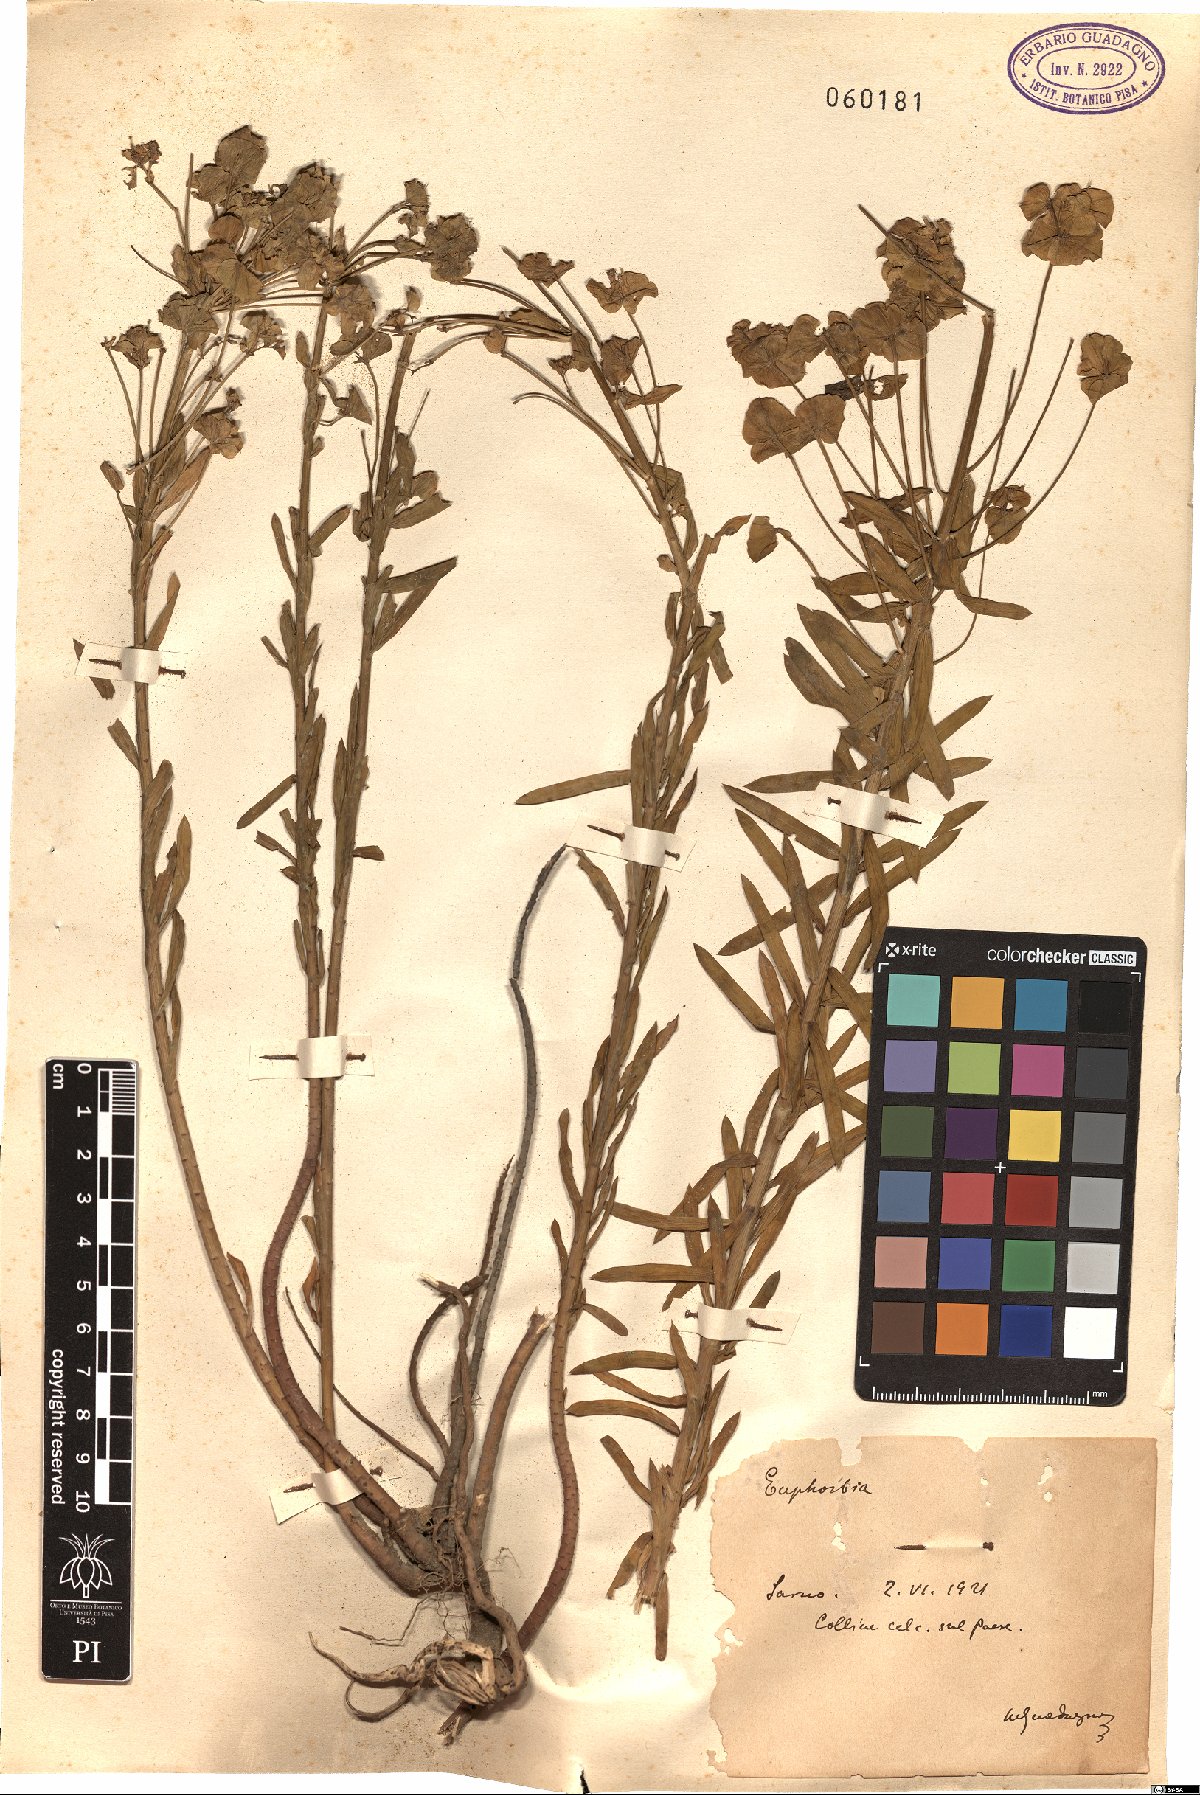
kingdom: Plantae
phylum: Tracheophyta
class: Magnoliopsida
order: Malpighiales
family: Euphorbiaceae
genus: Euphorbia
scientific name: Euphorbia
